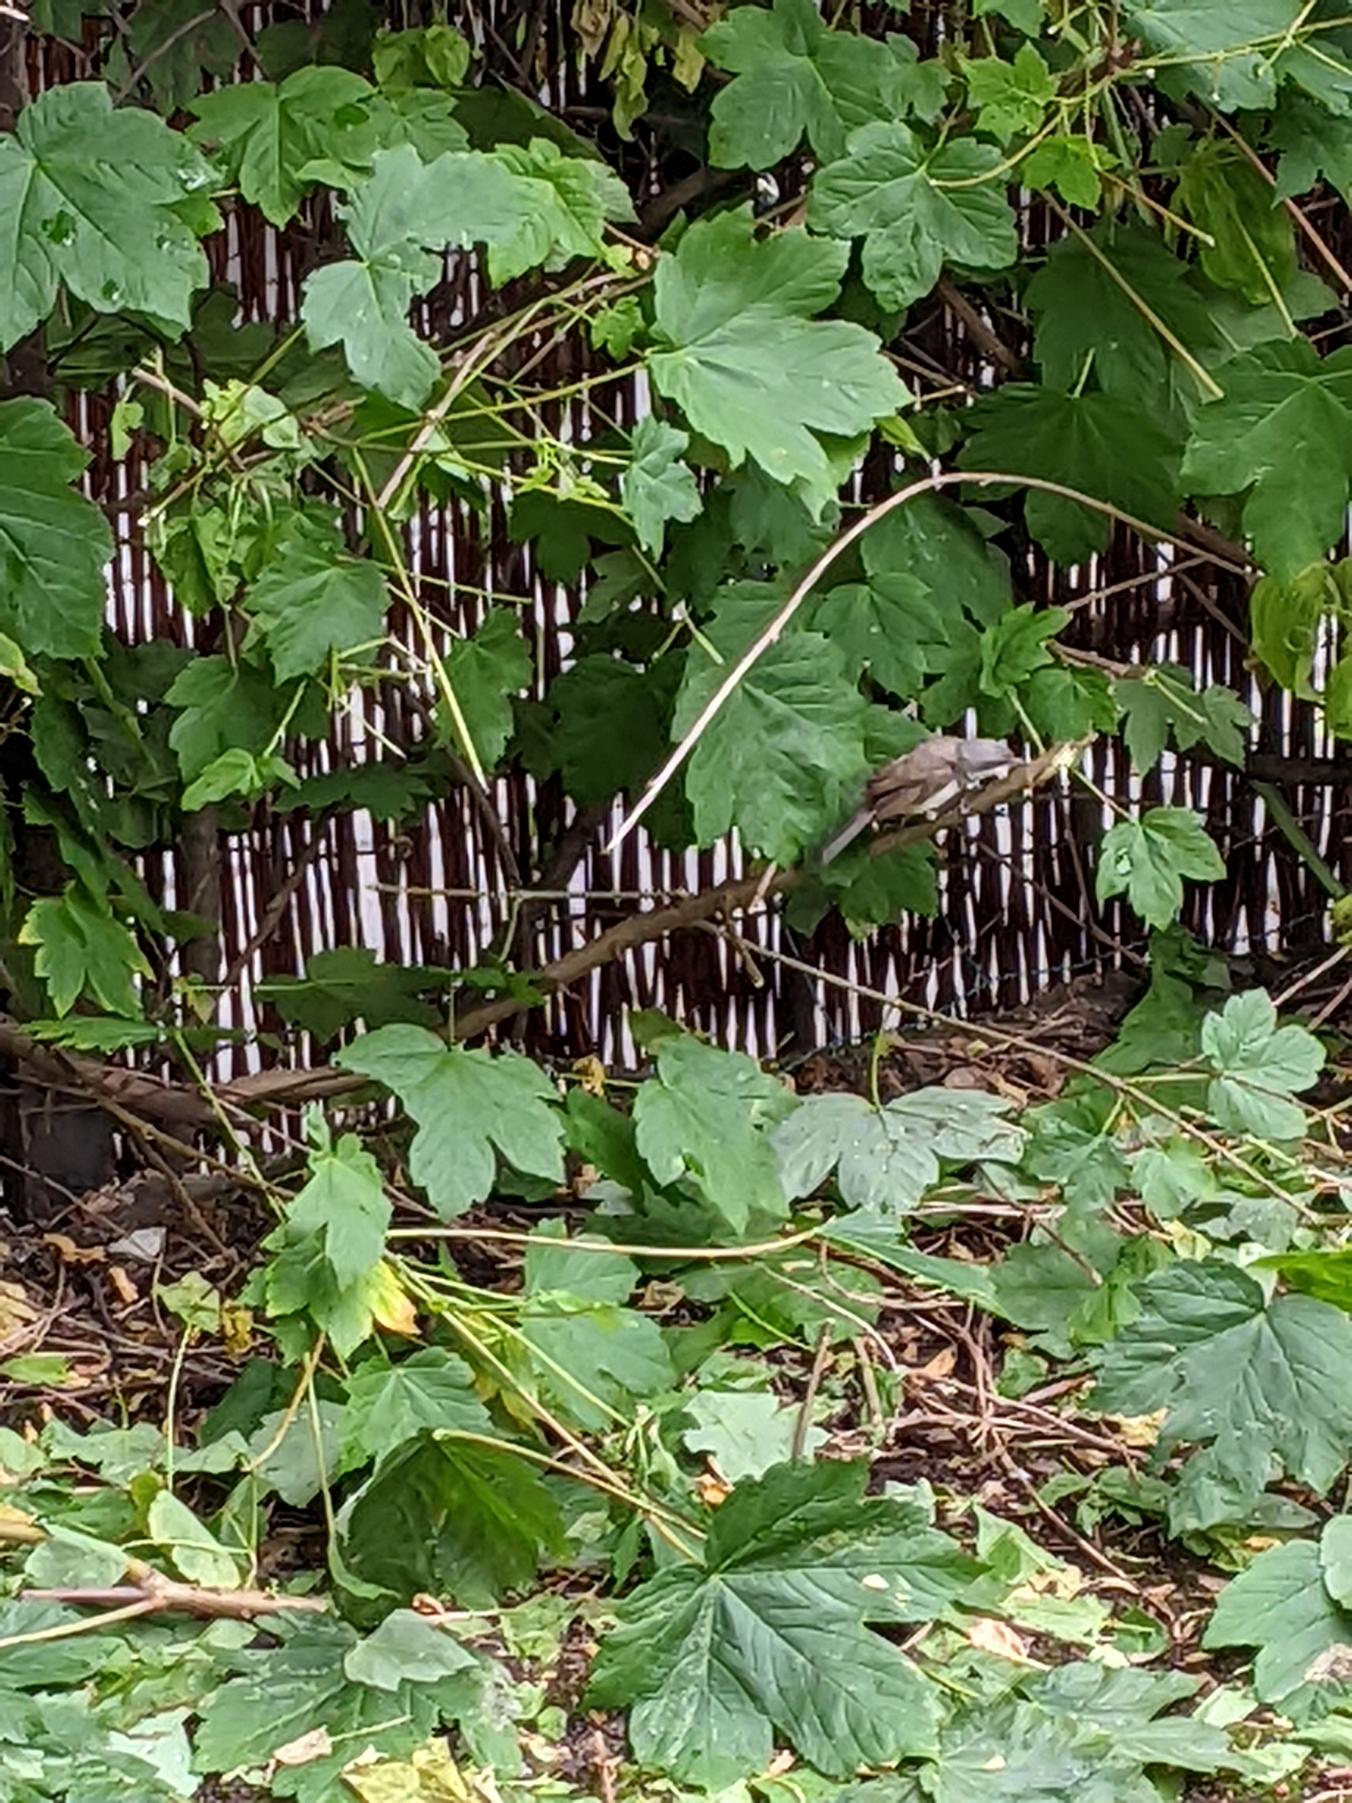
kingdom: Animalia
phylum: Chordata
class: Aves
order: Passeriformes
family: Sylviidae
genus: Sylvia
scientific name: Sylvia curruca
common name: Gærdesanger
